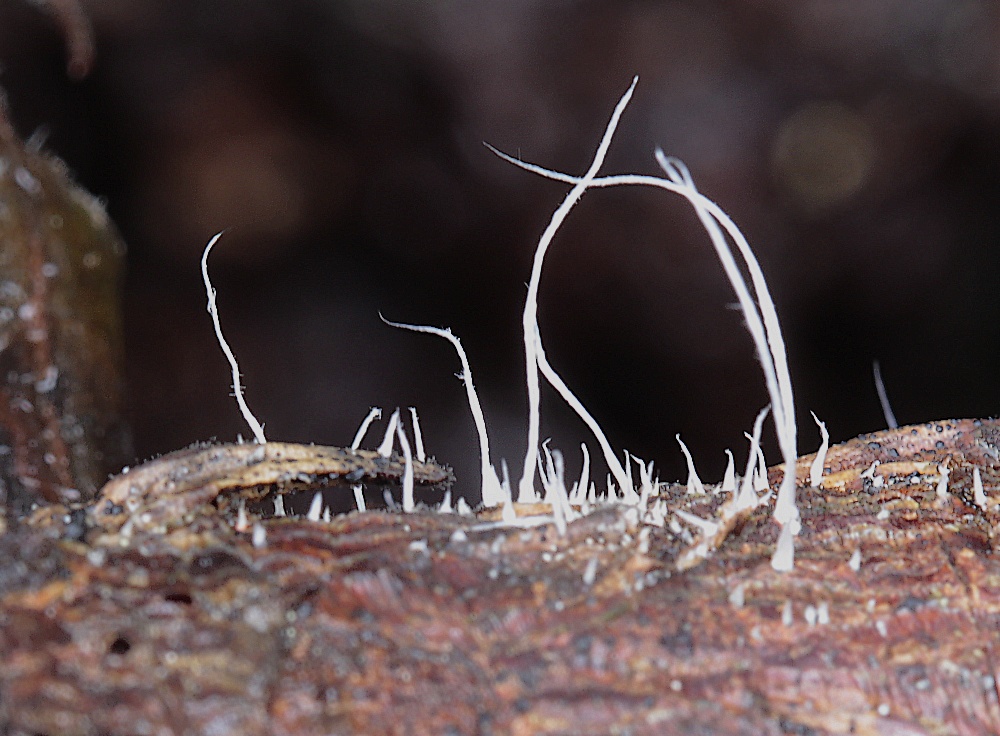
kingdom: Fungi
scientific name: Fungi
